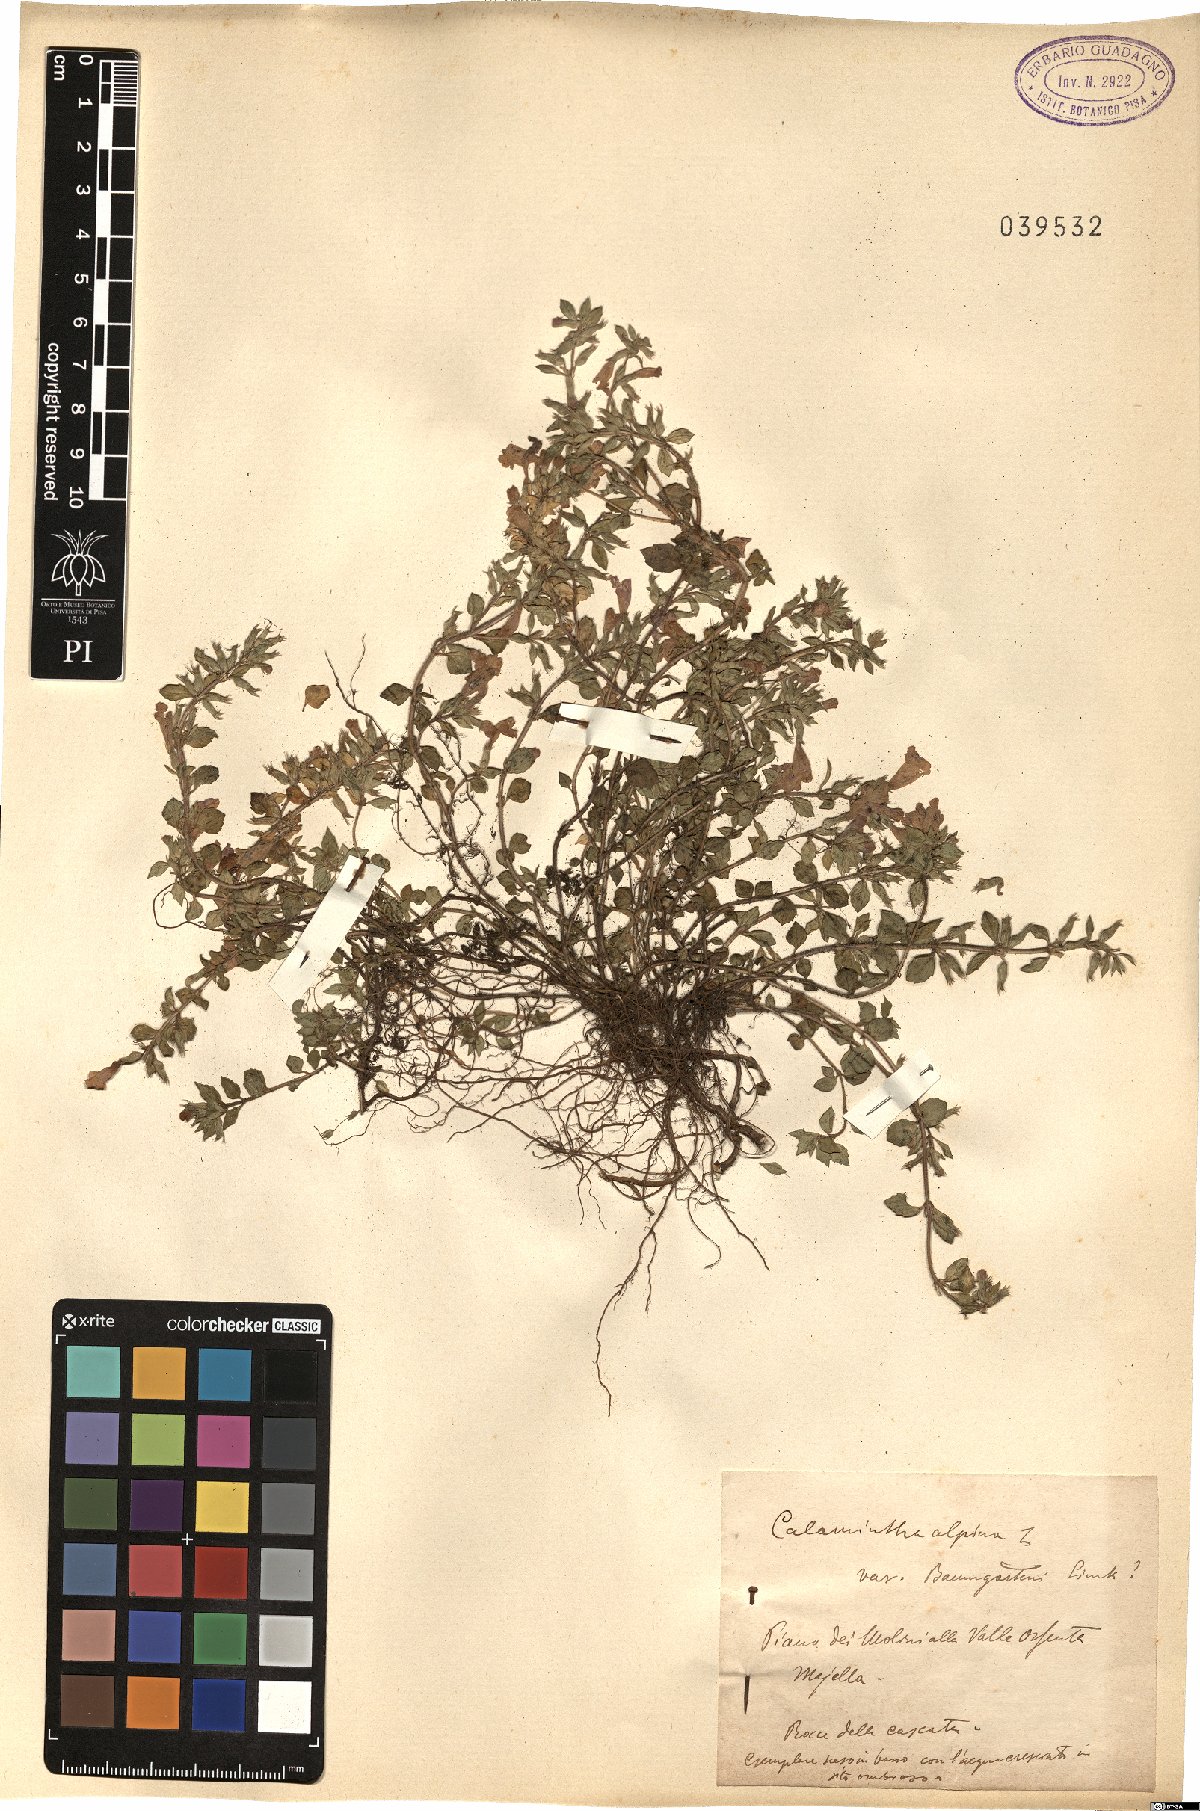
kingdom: Plantae
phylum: Tracheophyta
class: Magnoliopsida
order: Lamiales
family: Lamiaceae
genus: Clinopodium
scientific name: Clinopodium alpinum
